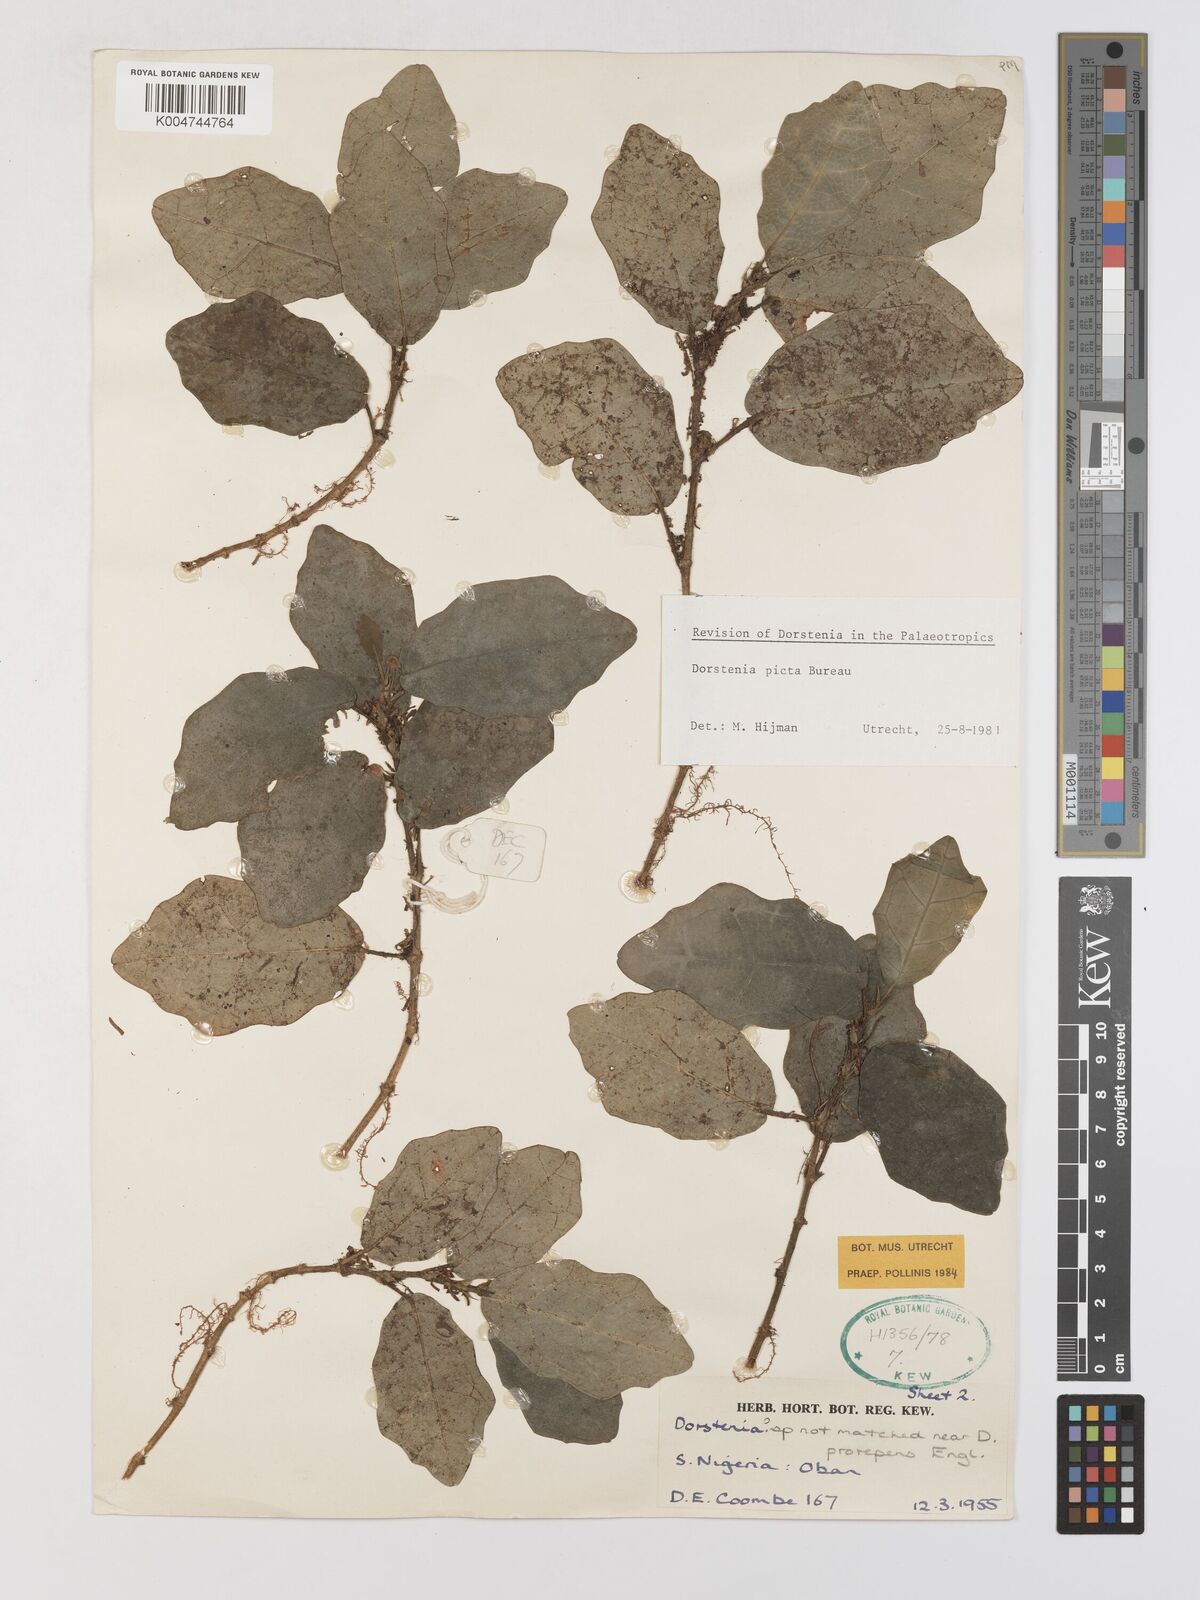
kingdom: Plantae
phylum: Tracheophyta
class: Magnoliopsida
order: Rosales
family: Moraceae
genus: Dorstenia
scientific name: Dorstenia picta
